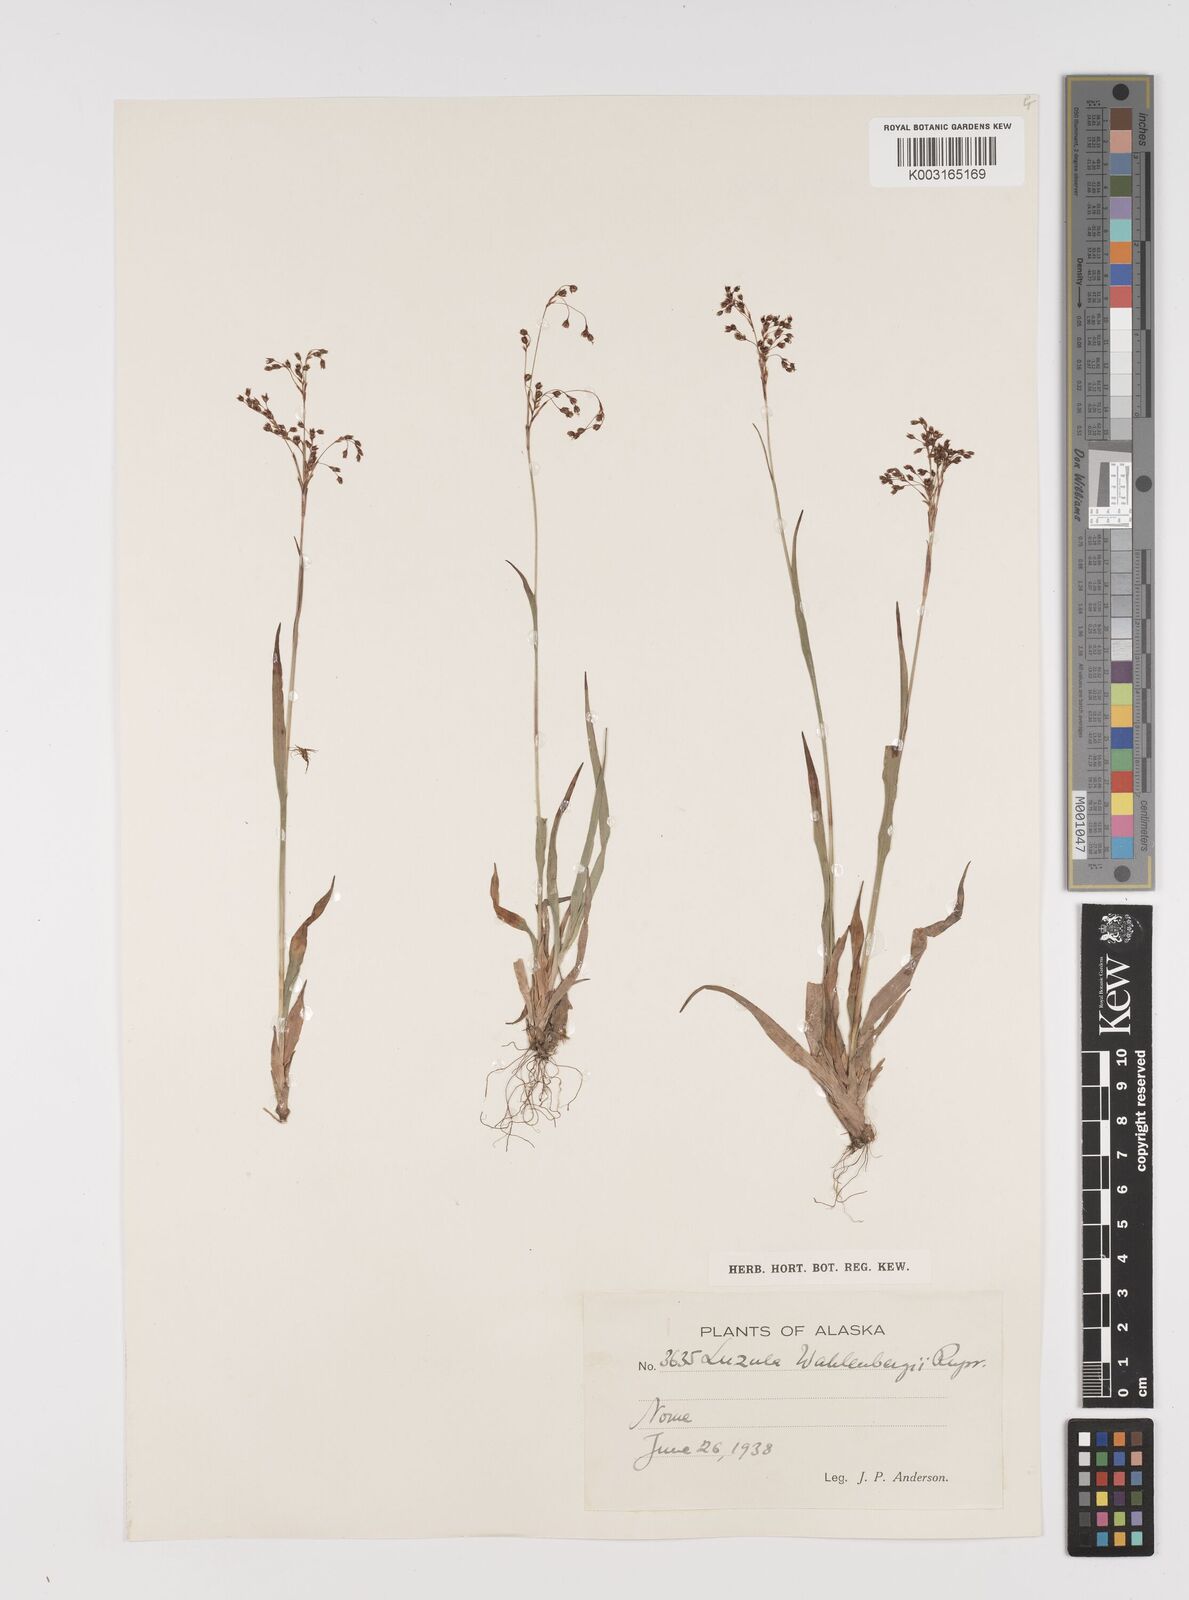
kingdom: Plantae
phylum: Tracheophyta
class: Liliopsida
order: Poales
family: Juncaceae
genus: Luzula
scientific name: Luzula wahlenbergii
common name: Wahlenberg's wood-rush
